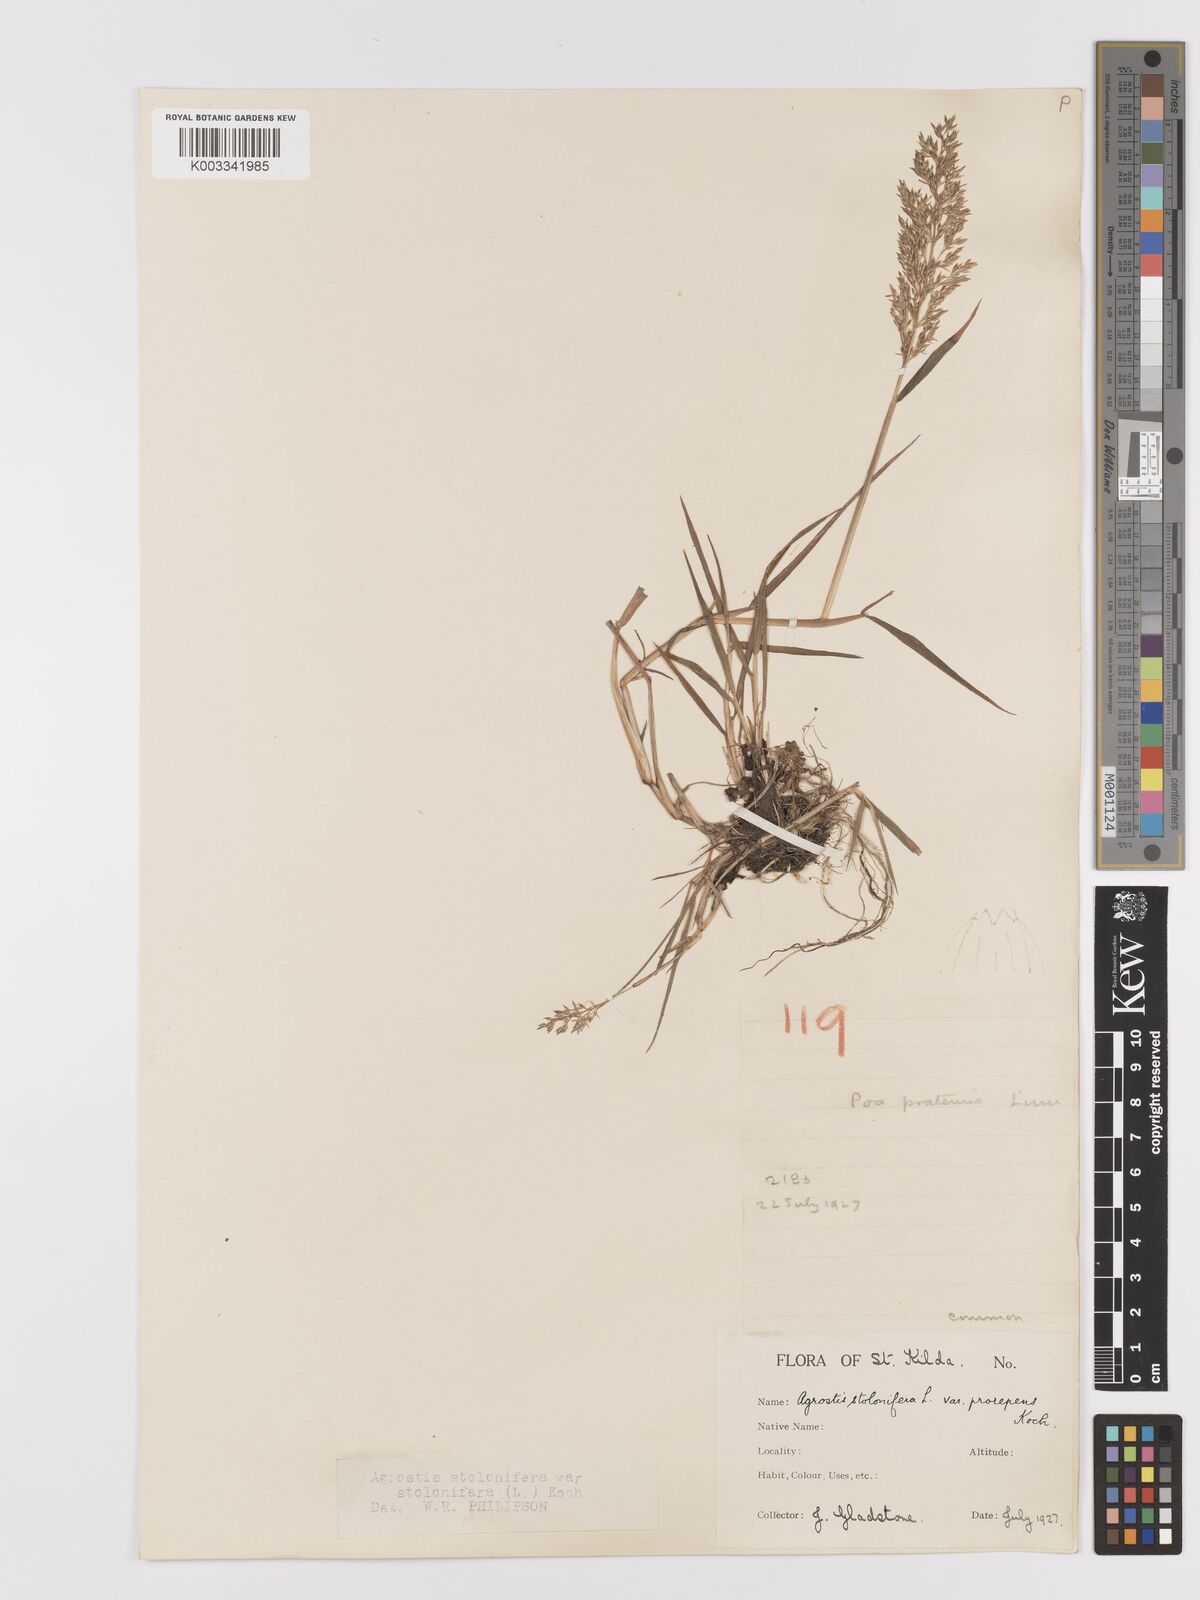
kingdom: Plantae
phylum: Tracheophyta
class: Liliopsida
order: Poales
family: Poaceae
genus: Agrostis
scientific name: Agrostis stolonifera
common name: Creeping bentgrass
